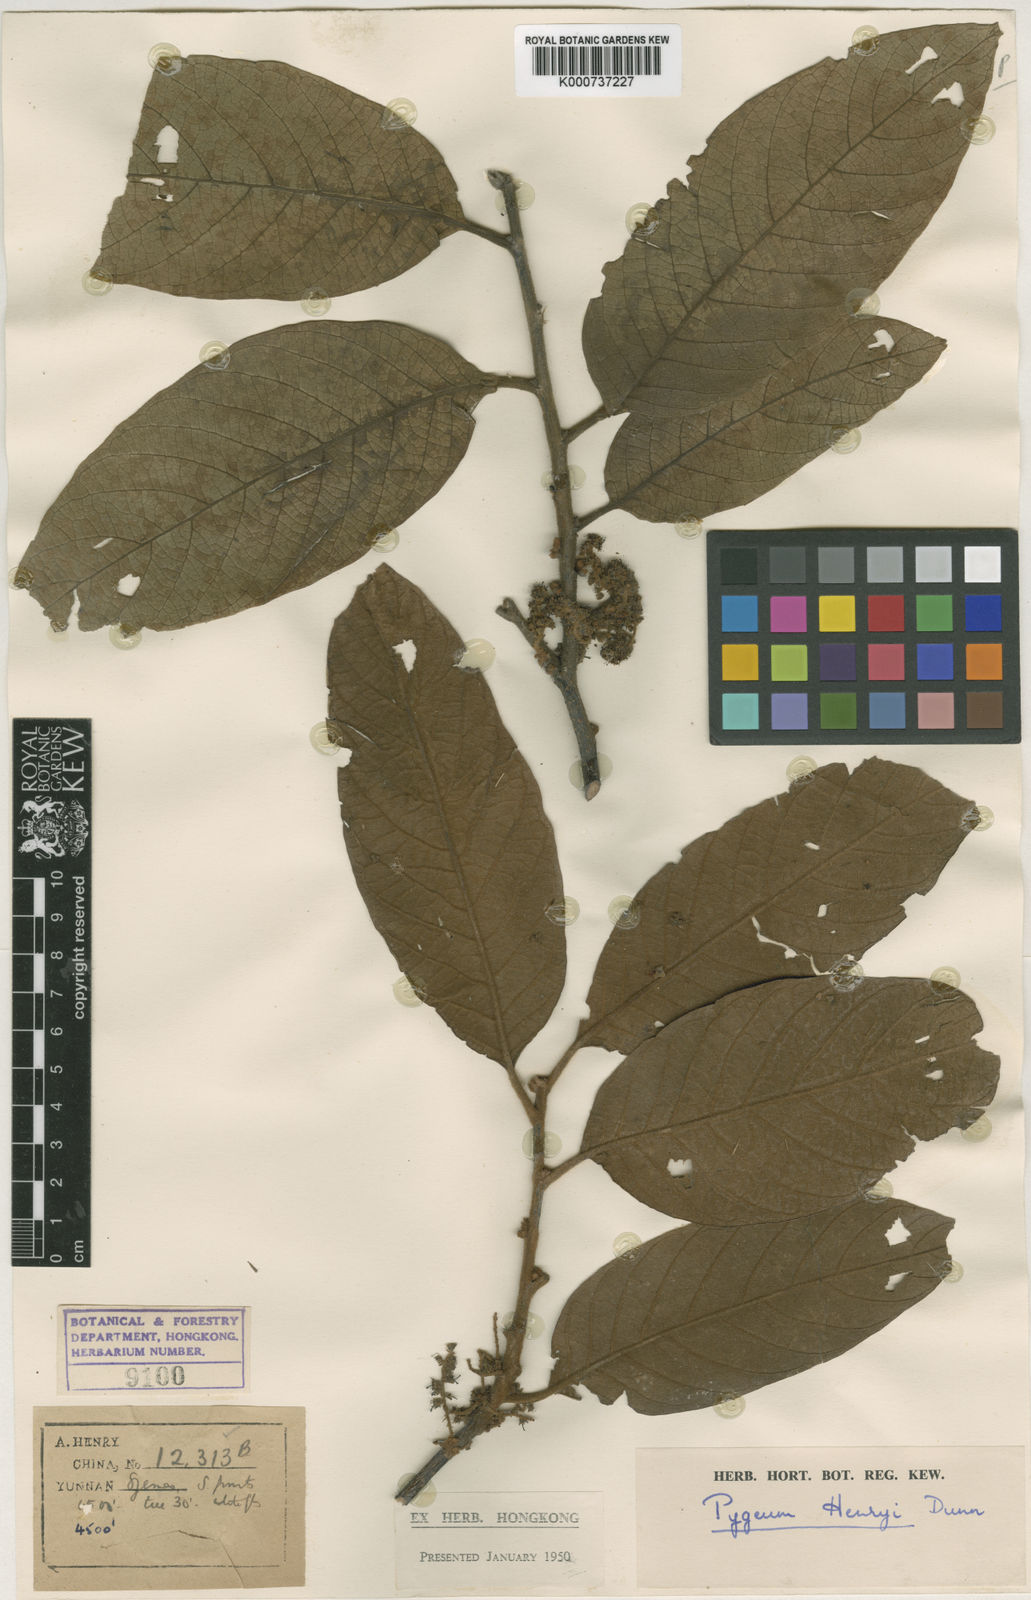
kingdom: Plantae
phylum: Tracheophyta
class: Magnoliopsida
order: Rosales
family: Rosaceae
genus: Prunus
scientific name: Prunus arborea
